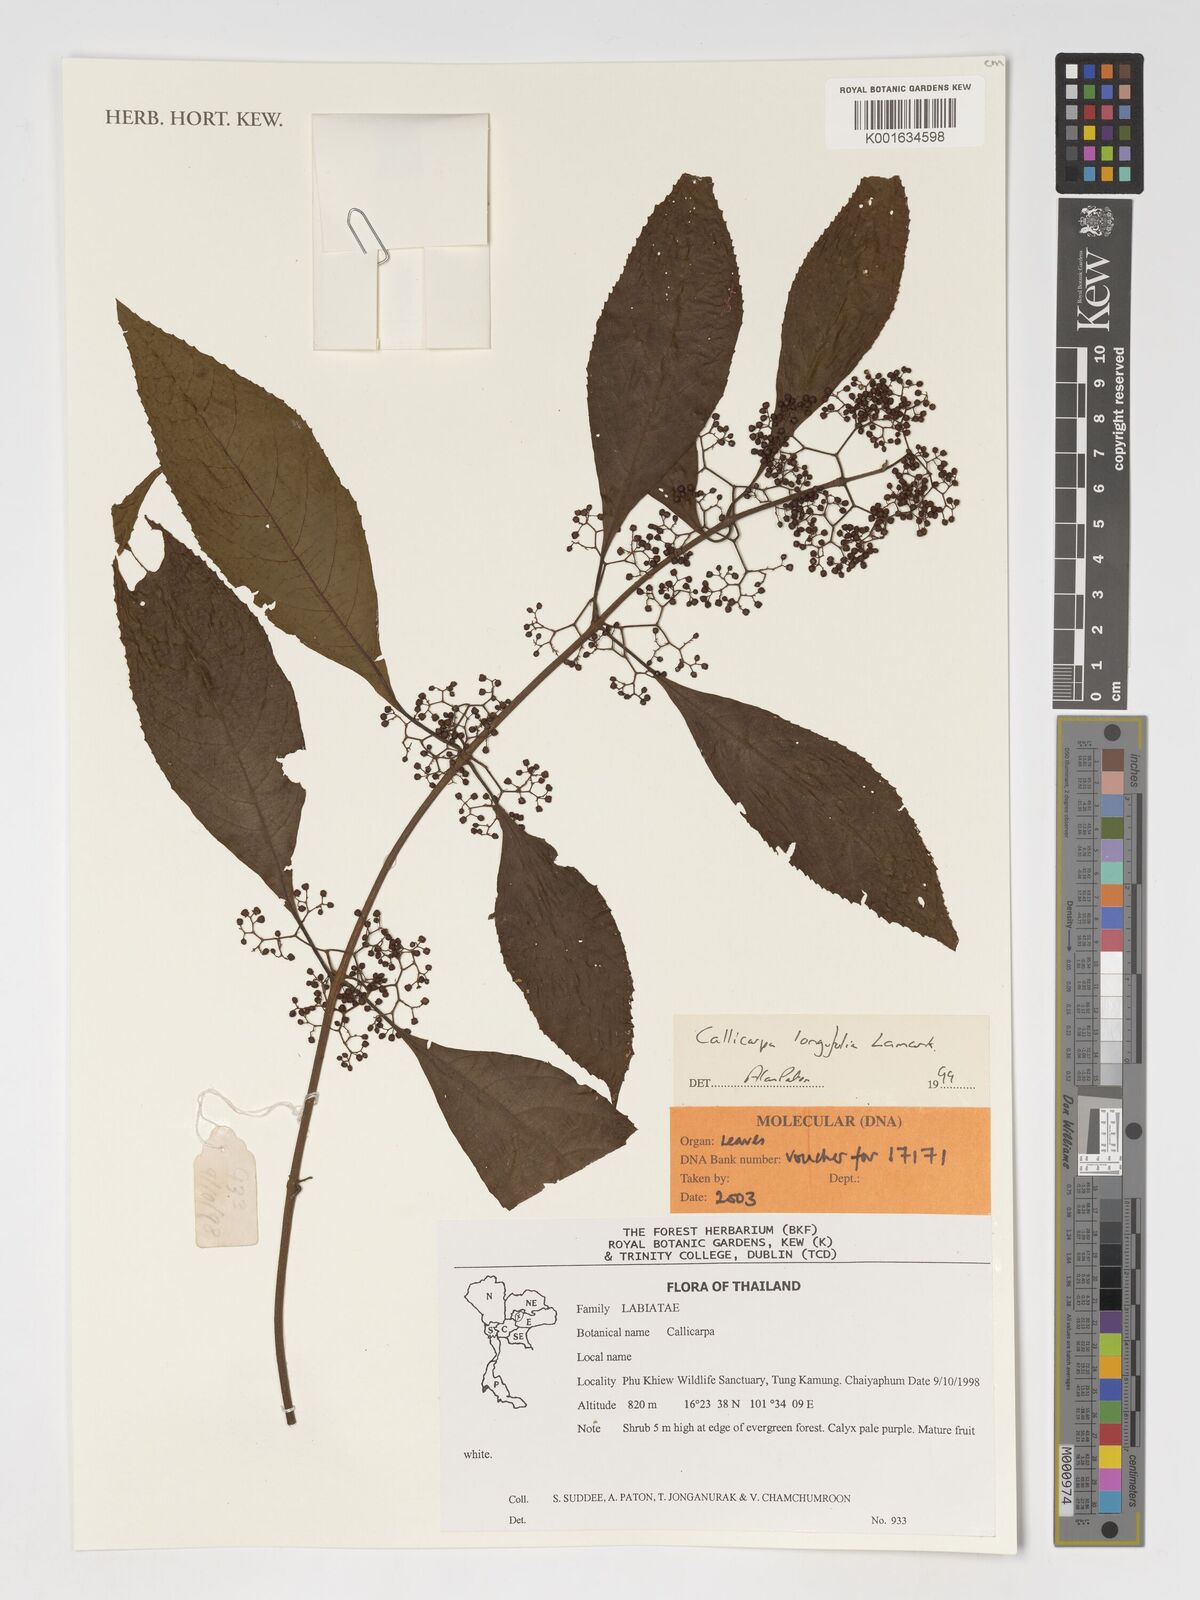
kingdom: Plantae
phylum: Tracheophyta
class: Magnoliopsida
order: Lamiales
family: Lamiaceae
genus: Callicarpa
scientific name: Callicarpa longifolia
